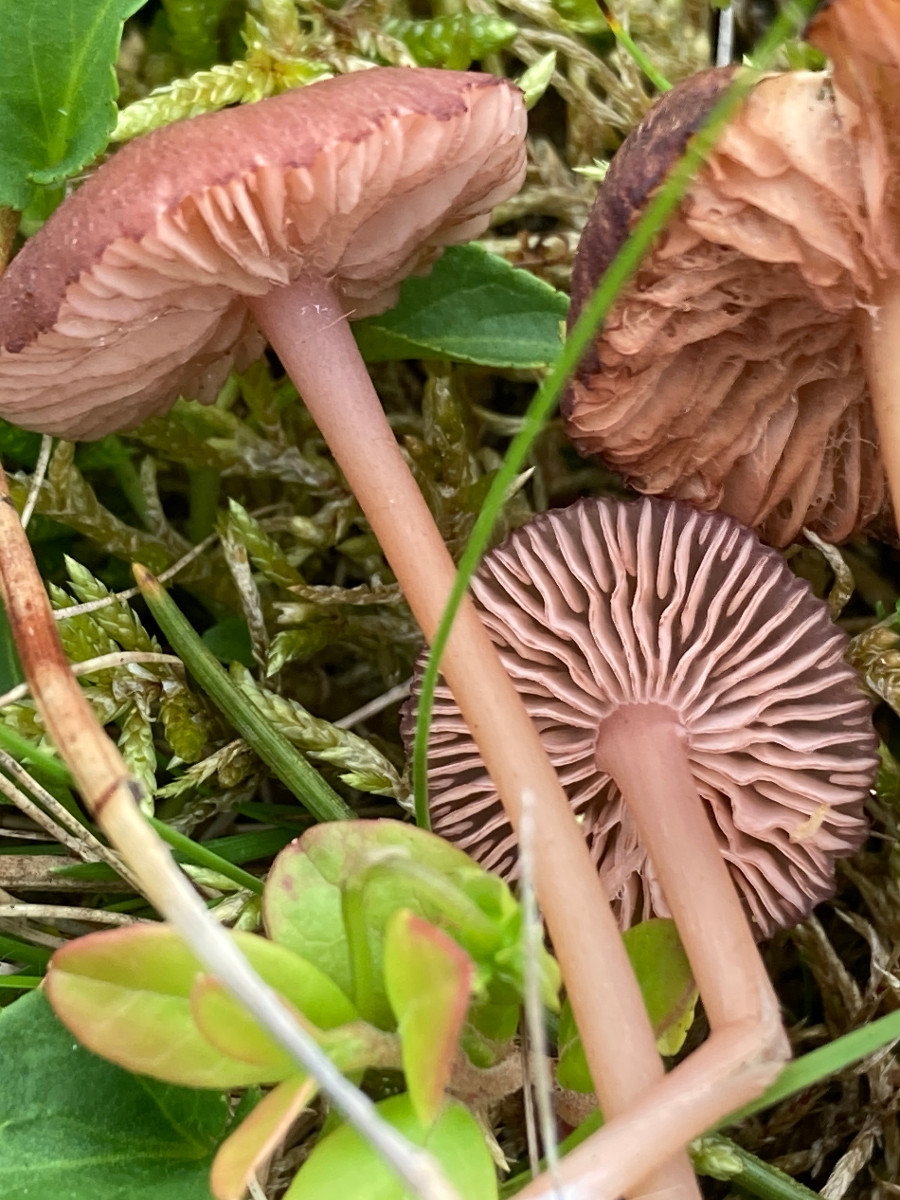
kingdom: Fungi
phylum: Basidiomycota
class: Agaricomycetes
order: Agaricales
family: Entolomataceae
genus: Entoloma
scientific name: Entoloma
